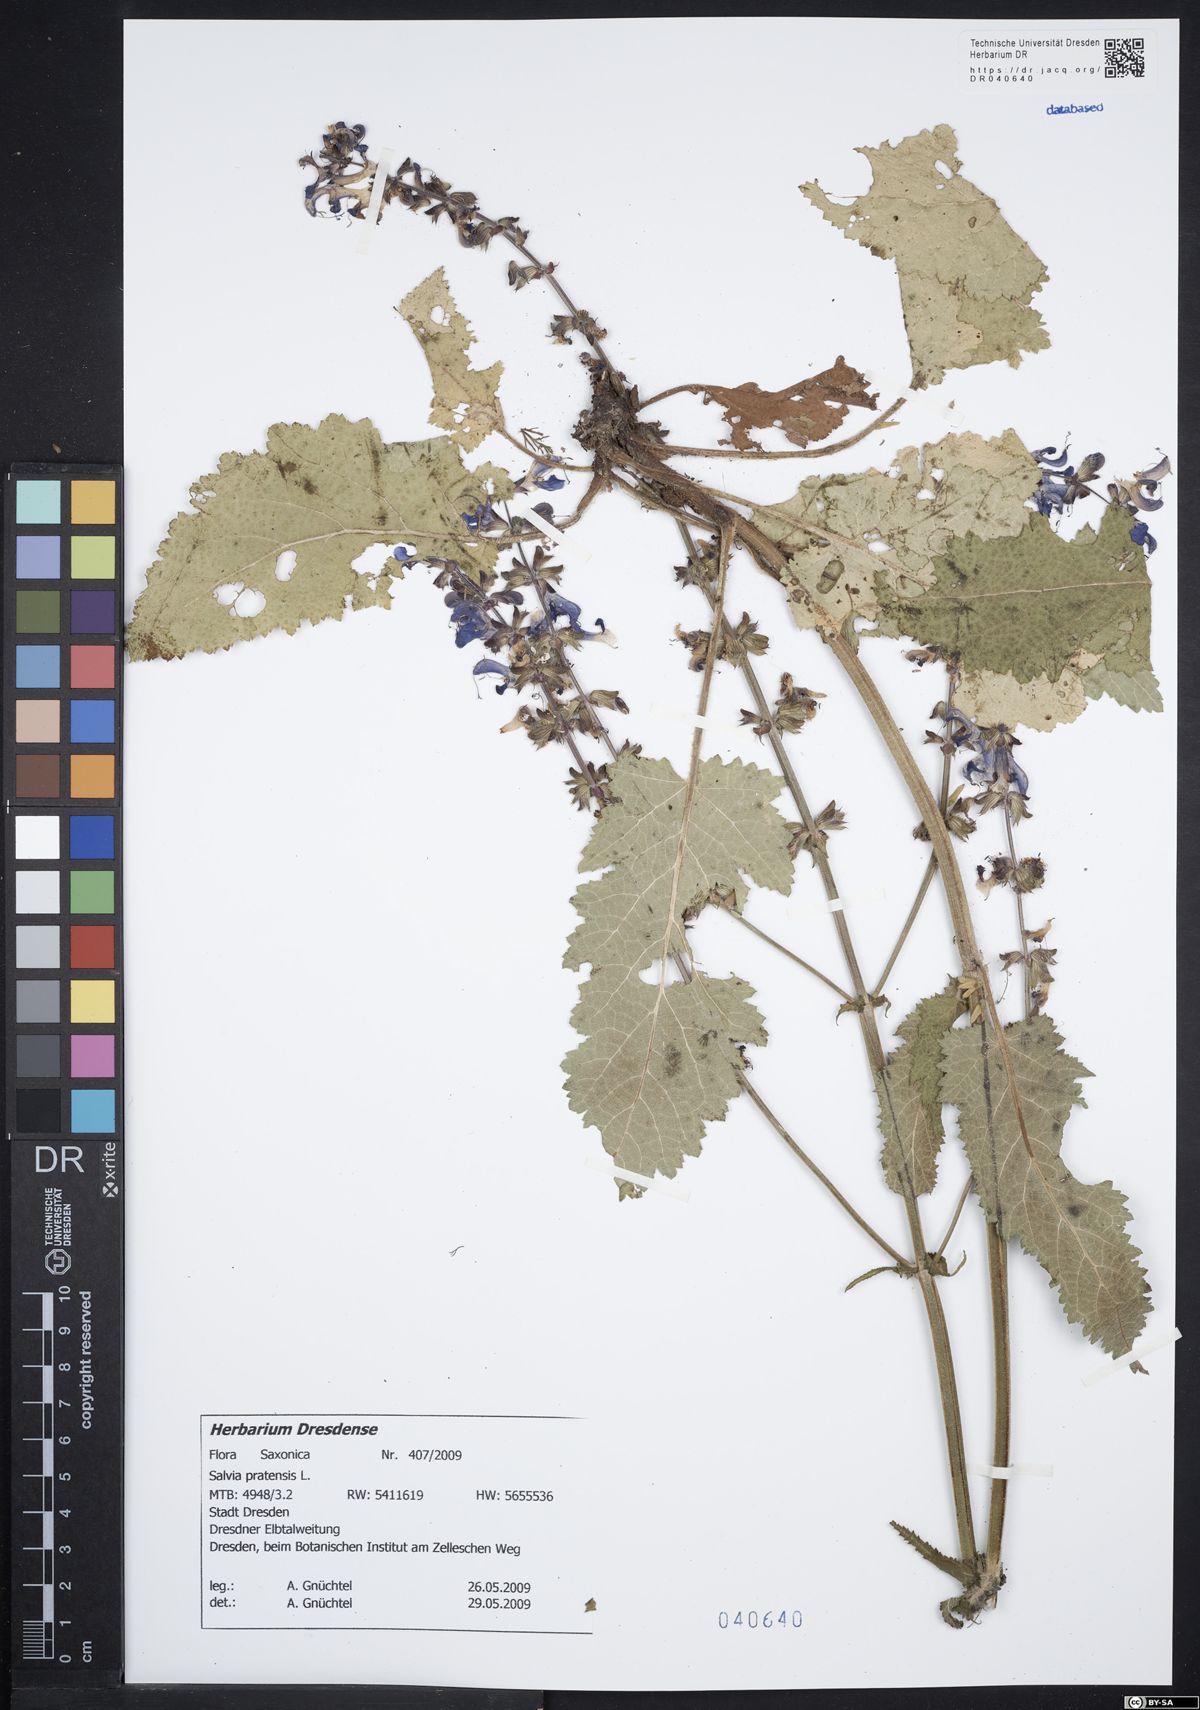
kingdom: Plantae
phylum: Tracheophyta
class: Magnoliopsida
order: Lamiales
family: Lamiaceae
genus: Salvia
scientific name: Salvia pratensis
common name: Meadow sage
